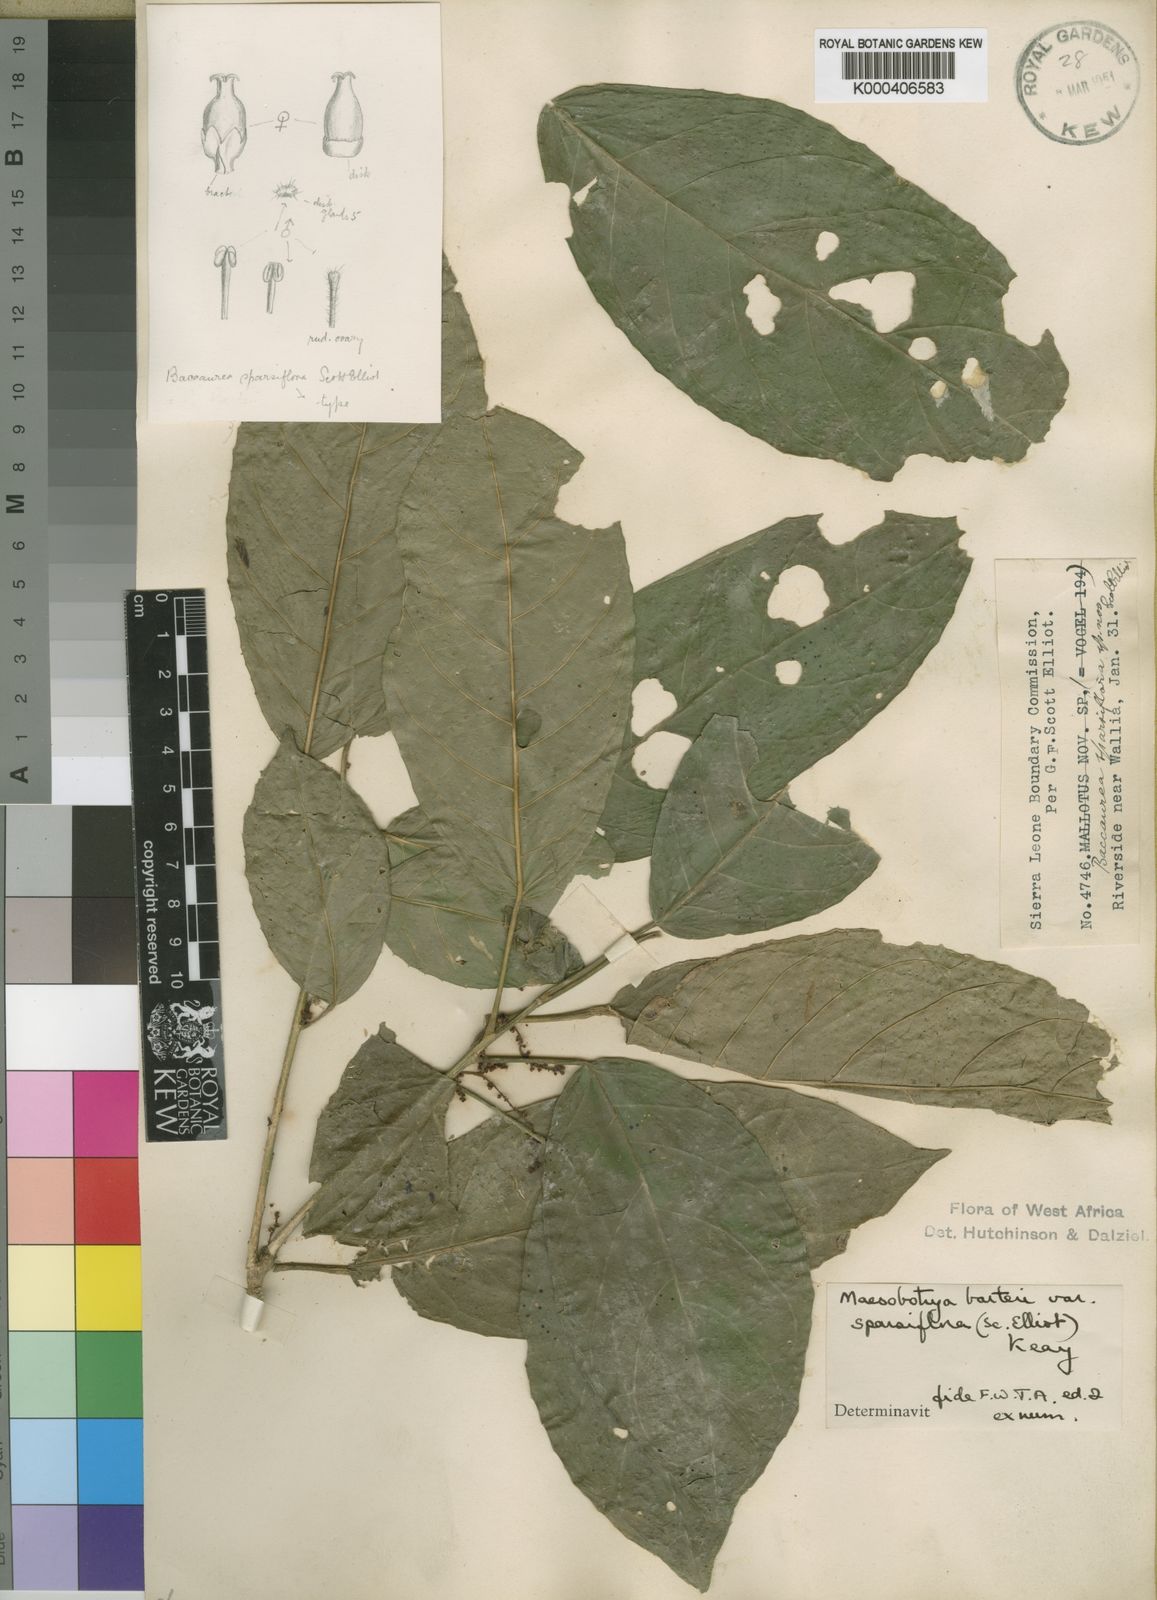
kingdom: Plantae
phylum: Tracheophyta
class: Magnoliopsida
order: Malpighiales
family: Phyllanthaceae
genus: Maesobotrya
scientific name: Maesobotrya barteri
